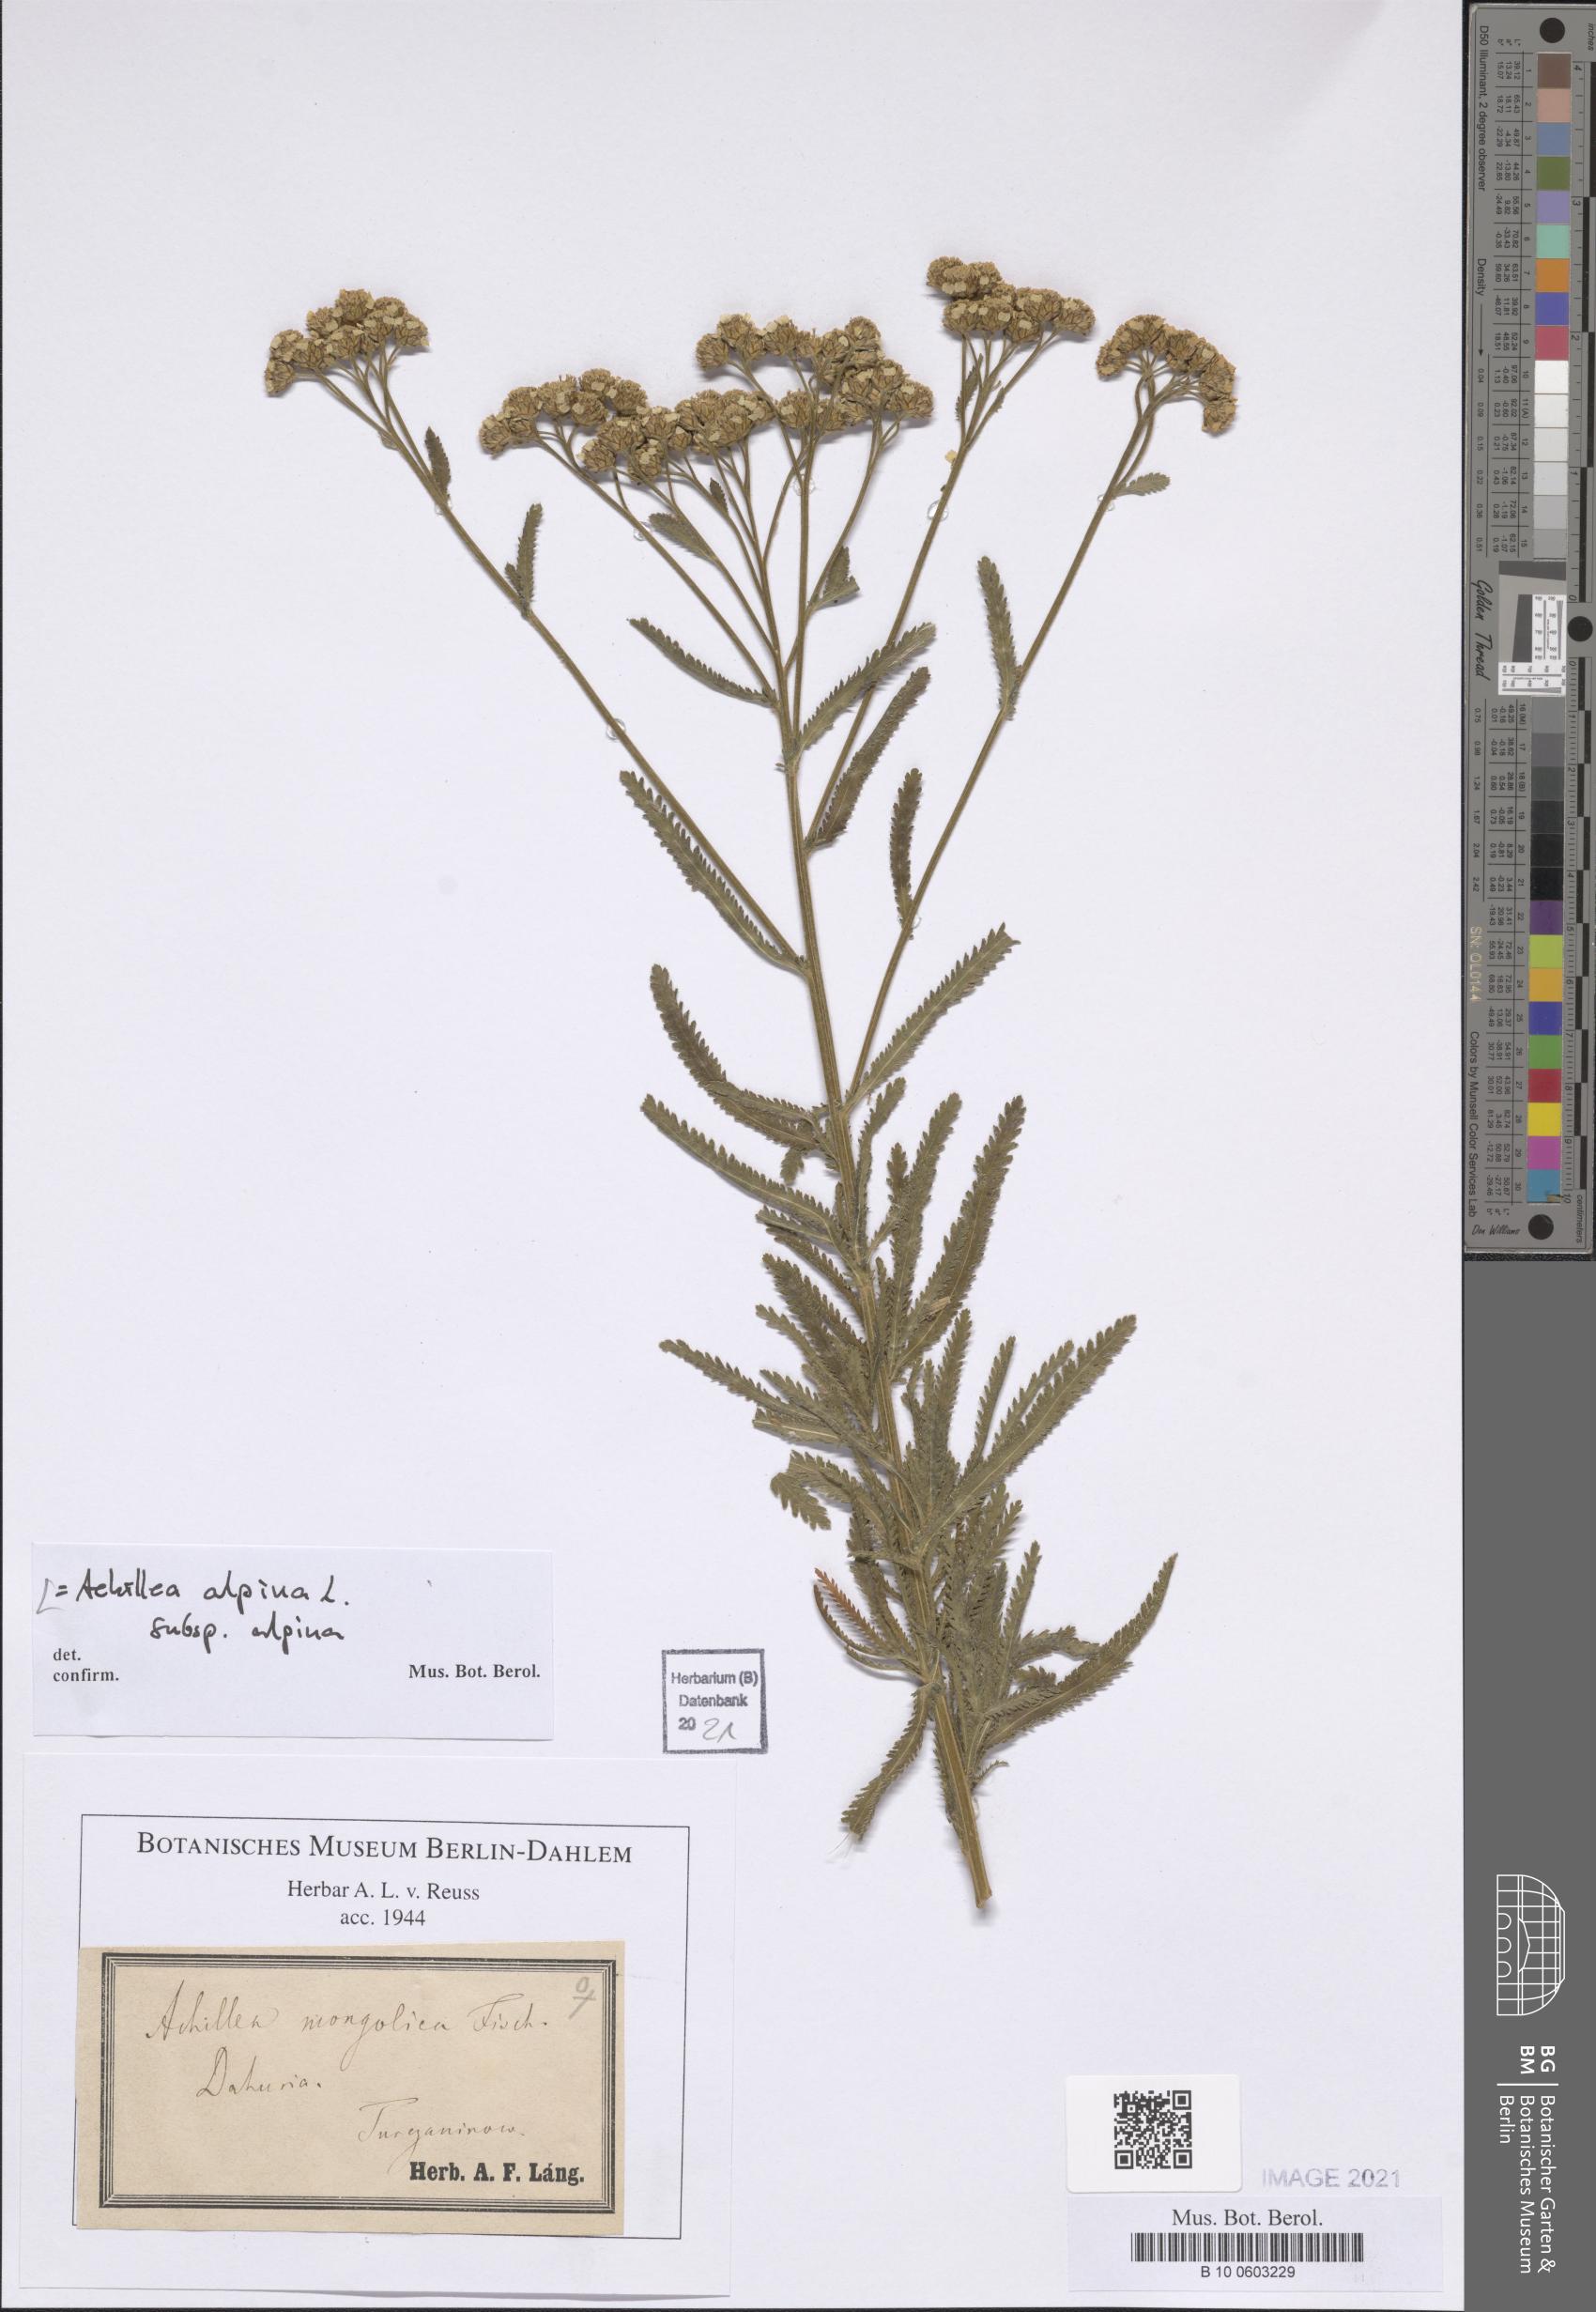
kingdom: Plantae
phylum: Tracheophyta
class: Magnoliopsida
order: Asterales
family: Asteraceae
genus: Achillea
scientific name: Achillea alpina
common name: Siberian yarrow
